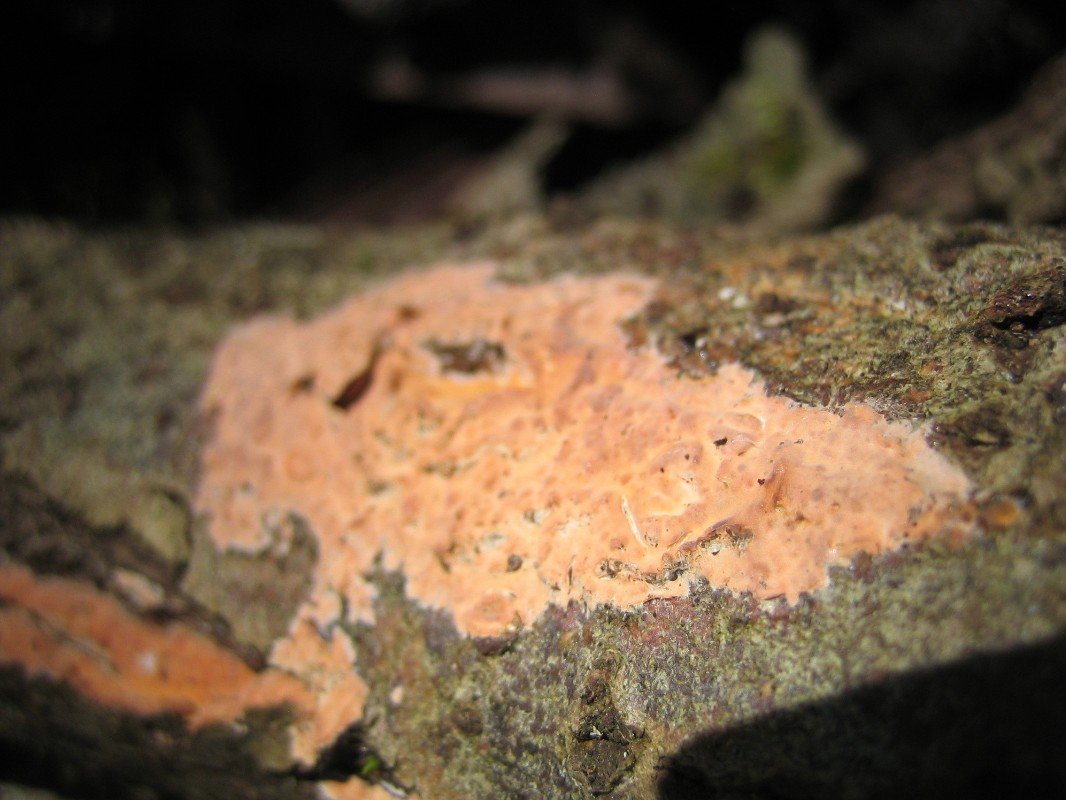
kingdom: Fungi
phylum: Basidiomycota
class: Agaricomycetes
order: Russulales
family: Peniophoraceae
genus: Peniophora
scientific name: Peniophora incarnata
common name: laksefarvet voksskind
